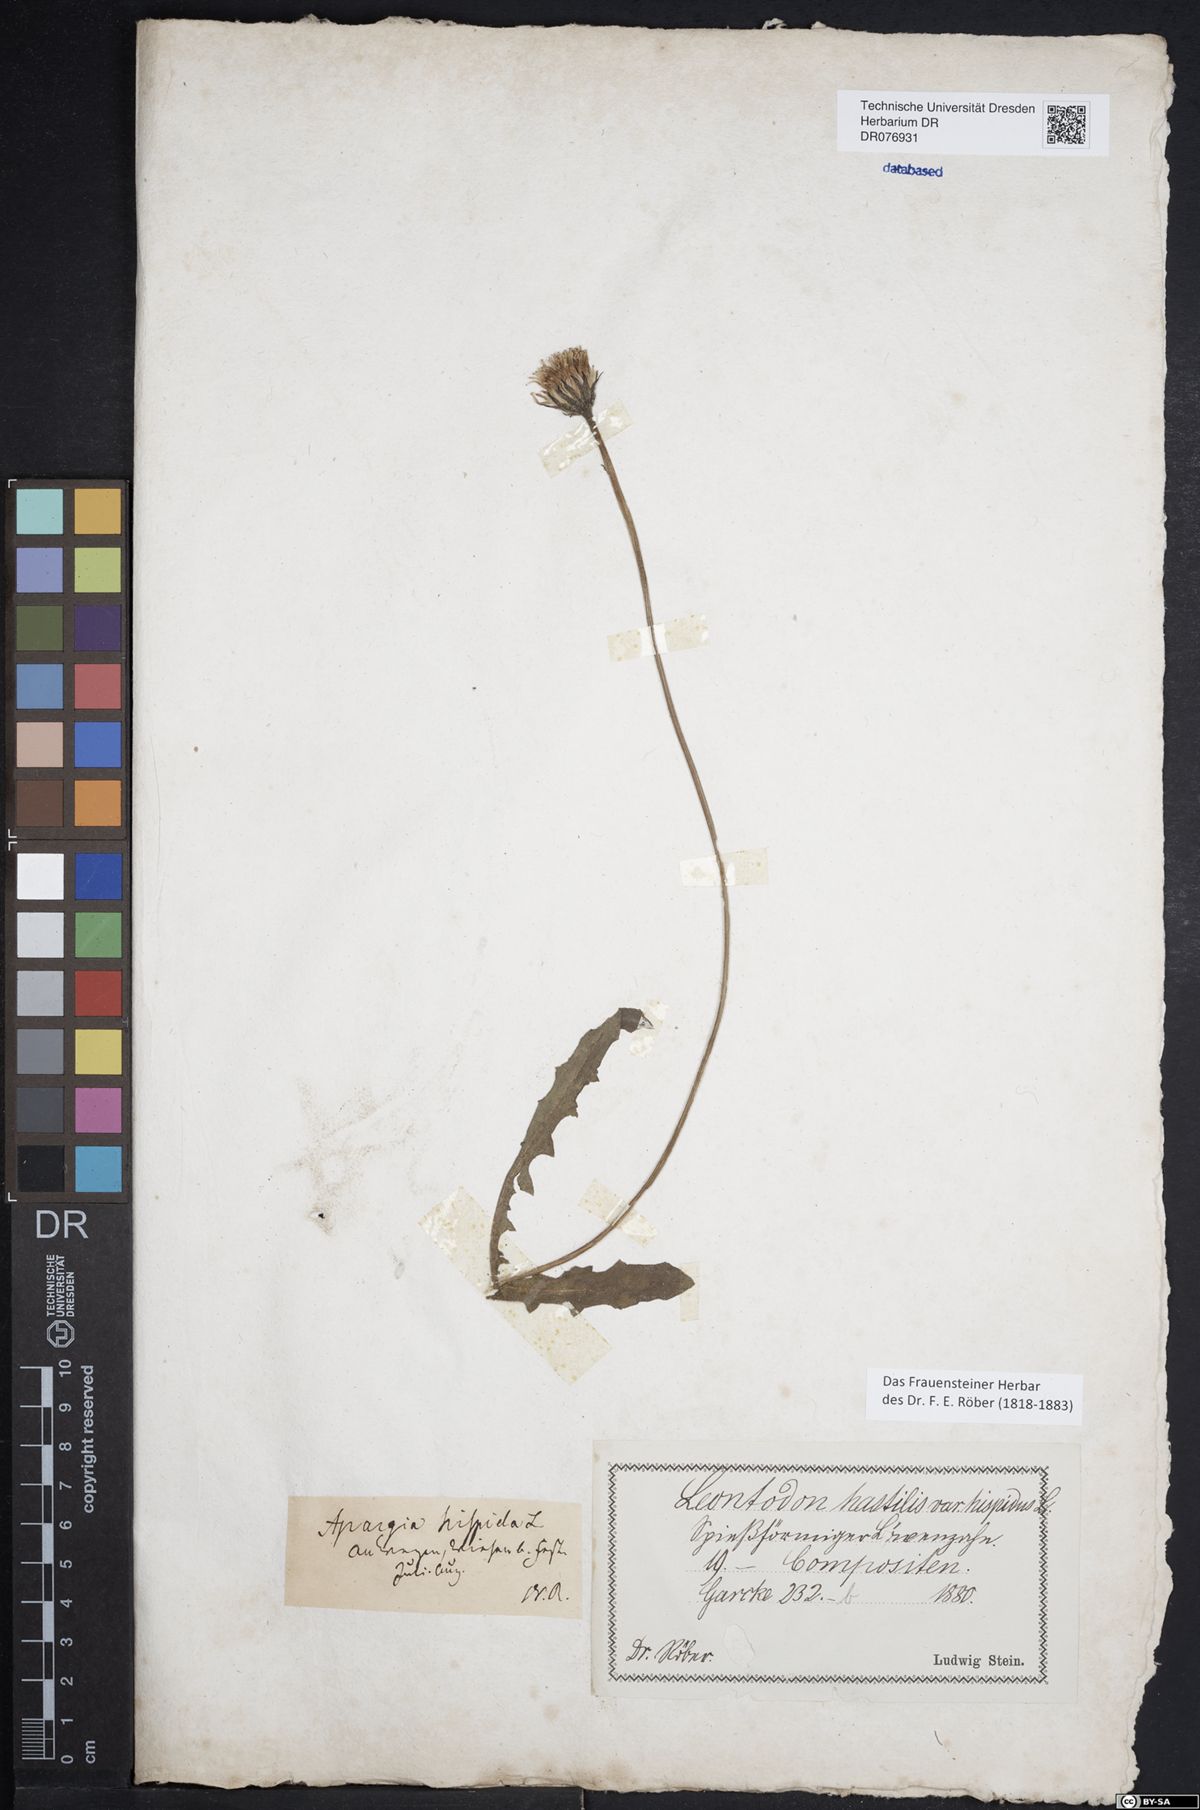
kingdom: Plantae
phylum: Tracheophyta
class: Magnoliopsida
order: Asterales
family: Asteraceae
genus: Leontodon
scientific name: Leontodon hispidus
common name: Rough hawkbit
